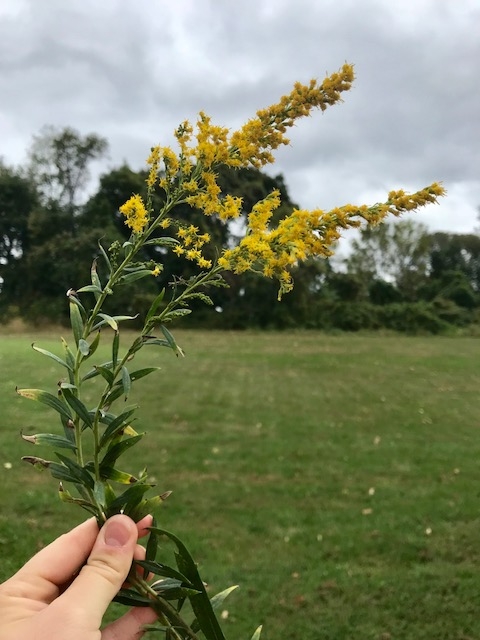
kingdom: Plantae
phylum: Tracheophyta
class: Magnoliopsida
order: Asterales
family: Asteraceae
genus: Solidago
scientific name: Solidago altissima
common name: Goldenrod
